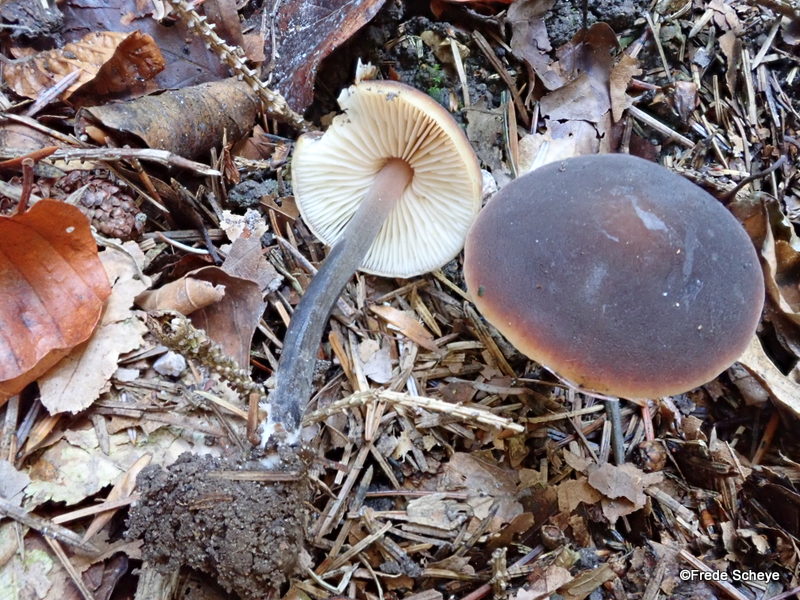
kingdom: Fungi
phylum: Basidiomycota
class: Agaricomycetes
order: Agaricales
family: Macrocystidiaceae
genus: Macrocystidia
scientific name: Macrocystidia cucumis
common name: agurkehat
